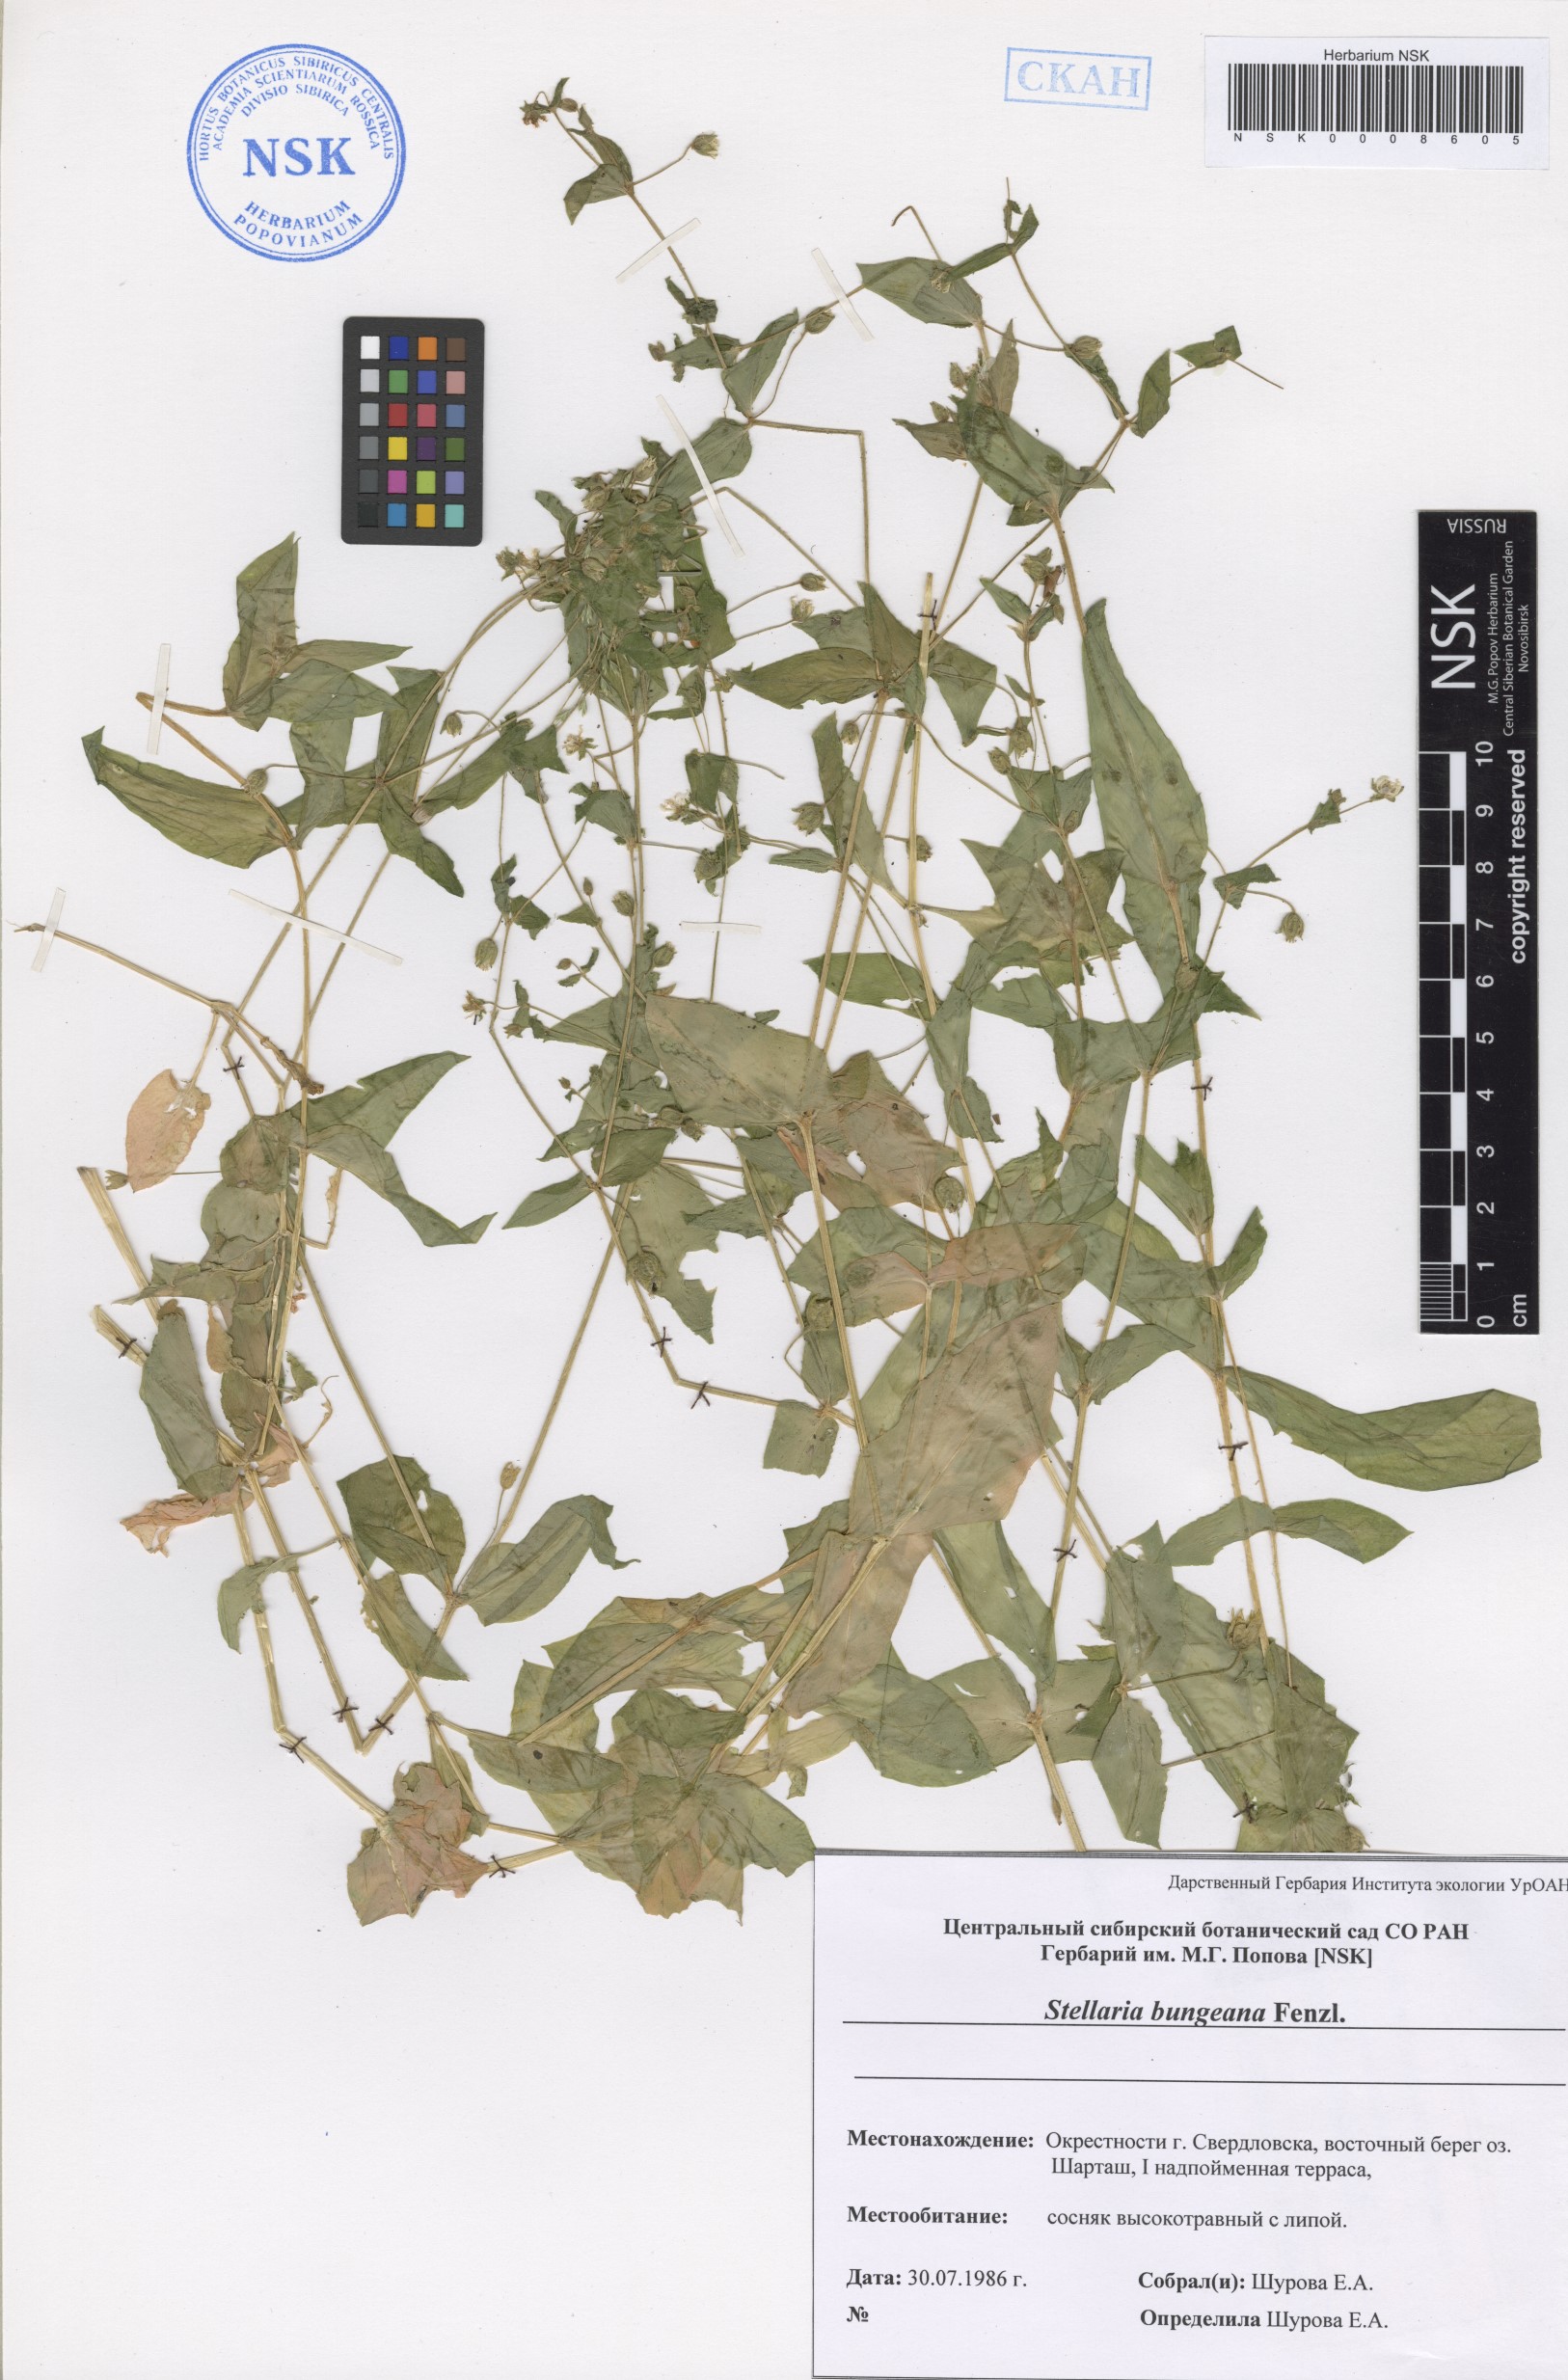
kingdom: Plantae
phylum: Tracheophyta
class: Magnoliopsida
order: Caryophyllales
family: Caryophyllaceae
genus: Stellaria
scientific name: Stellaria bungeana
